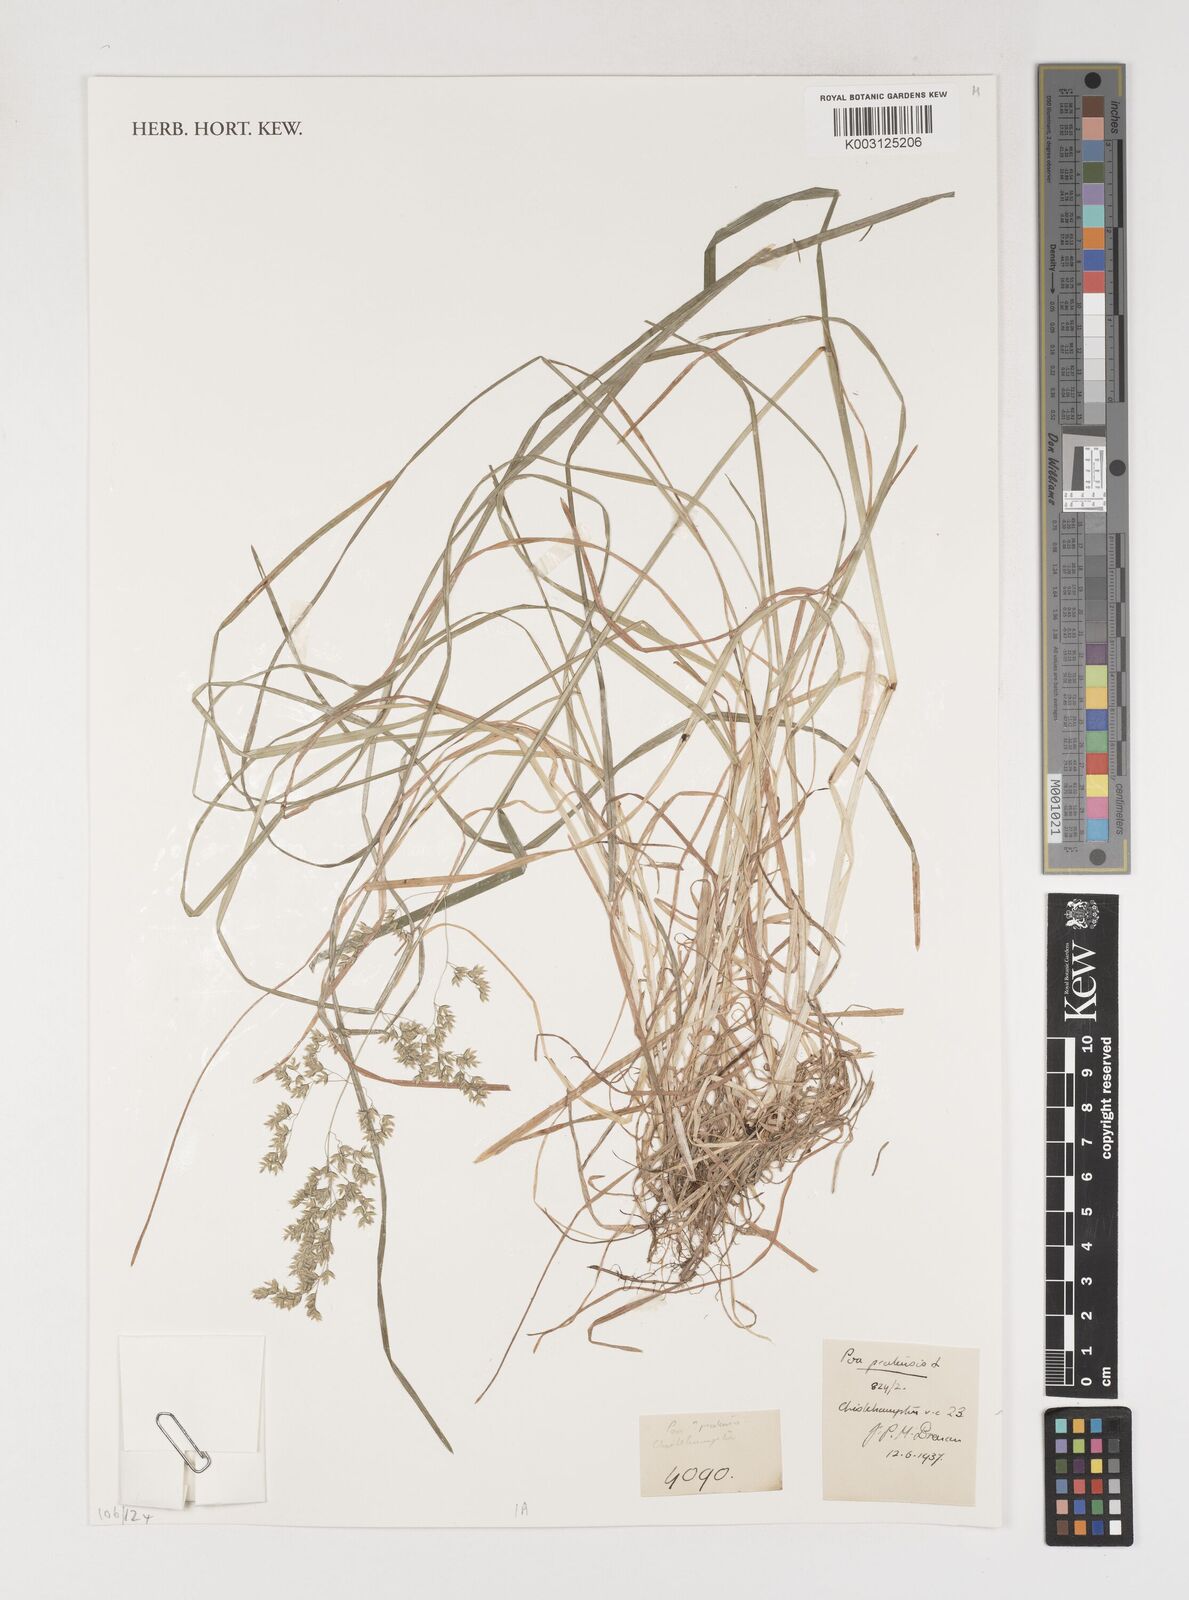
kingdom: Plantae
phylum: Tracheophyta
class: Liliopsida
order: Poales
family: Poaceae
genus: Poa
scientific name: Poa pratensis
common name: Kentucky bluegrass
